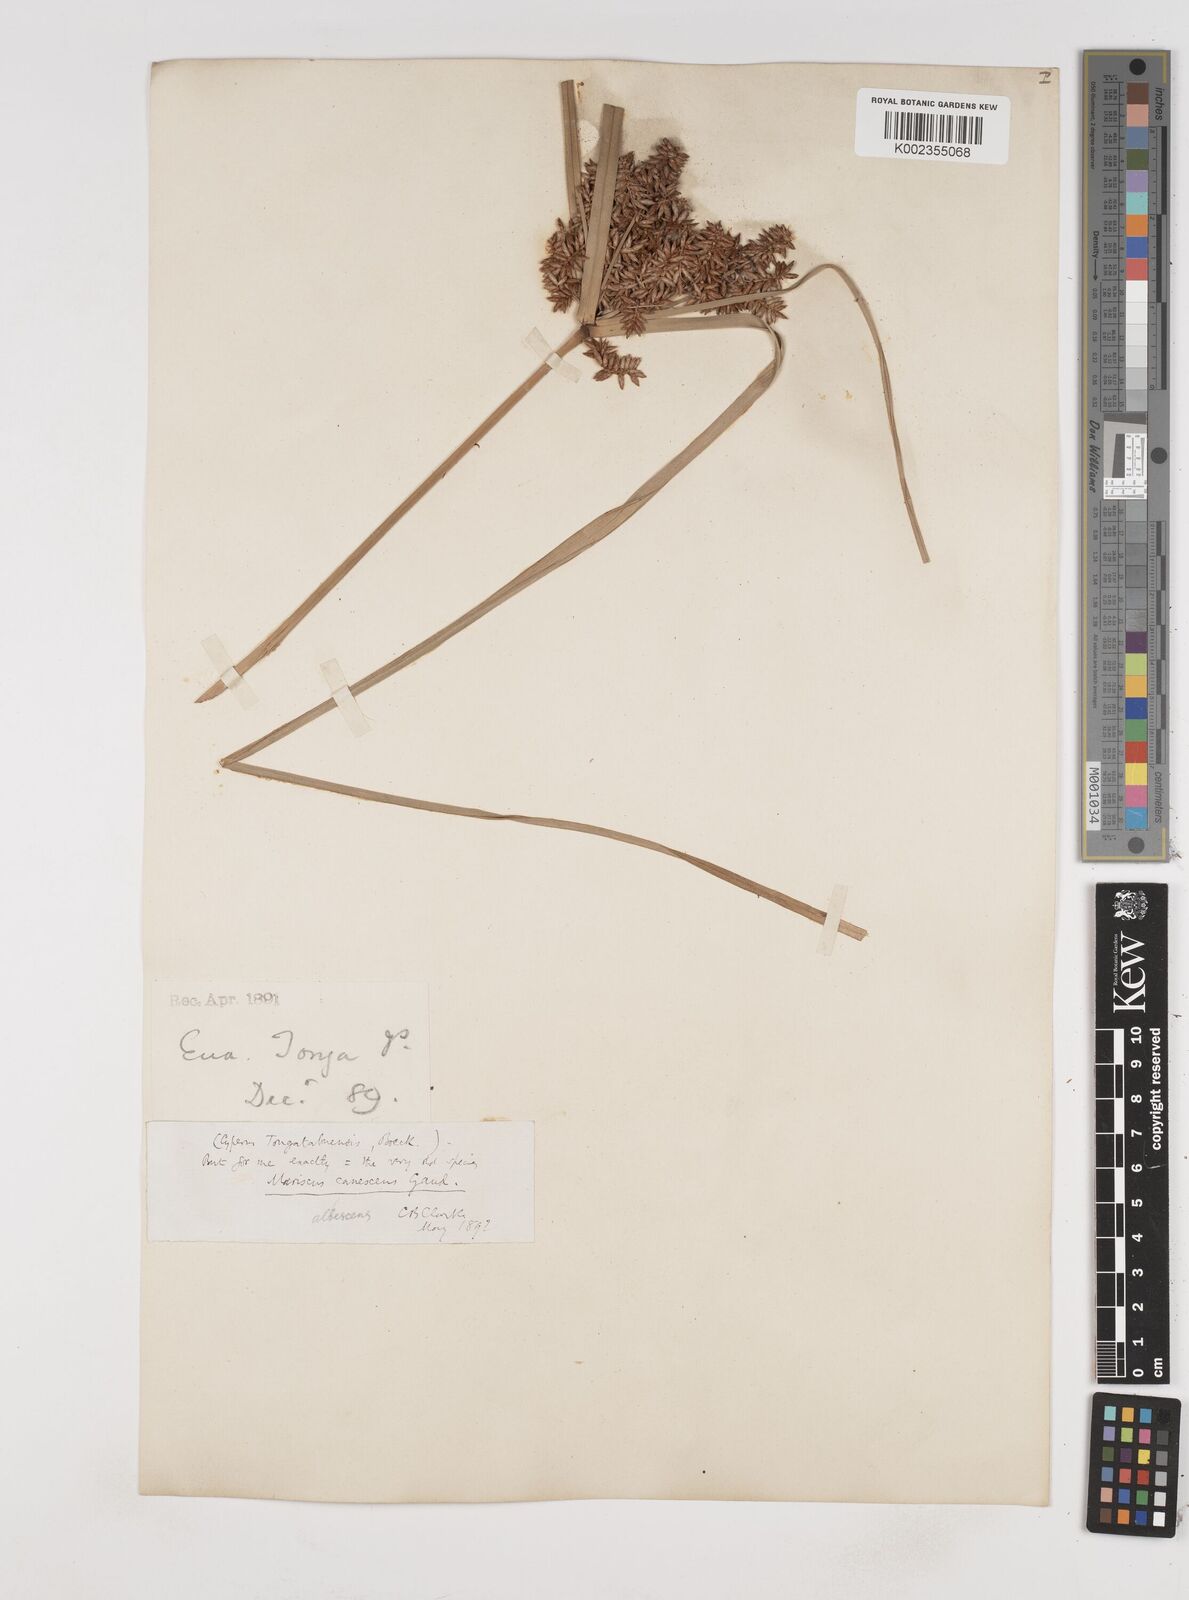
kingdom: Plantae
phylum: Tracheophyta
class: Liliopsida
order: Poales
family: Cyperaceae
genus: Cyperus
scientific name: Cyperus javanicus
